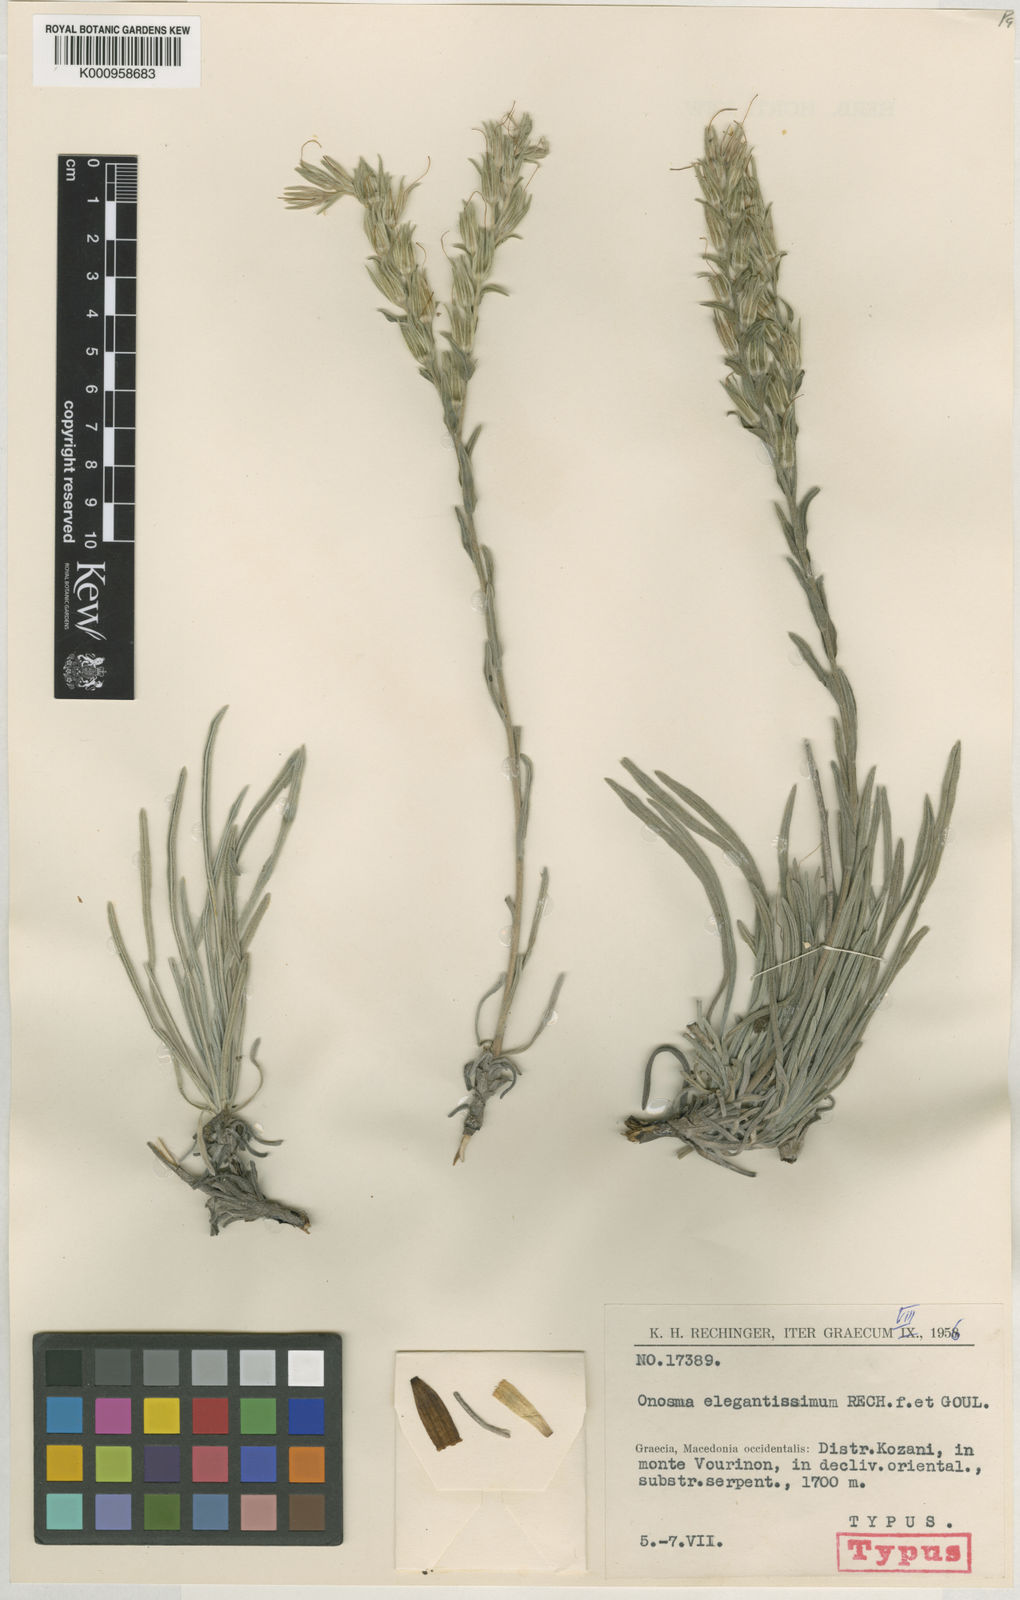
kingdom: Plantae
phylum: Tracheophyta
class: Magnoliopsida
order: Boraginales
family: Boraginaceae
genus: Onosma
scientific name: Onosma elegantissima
